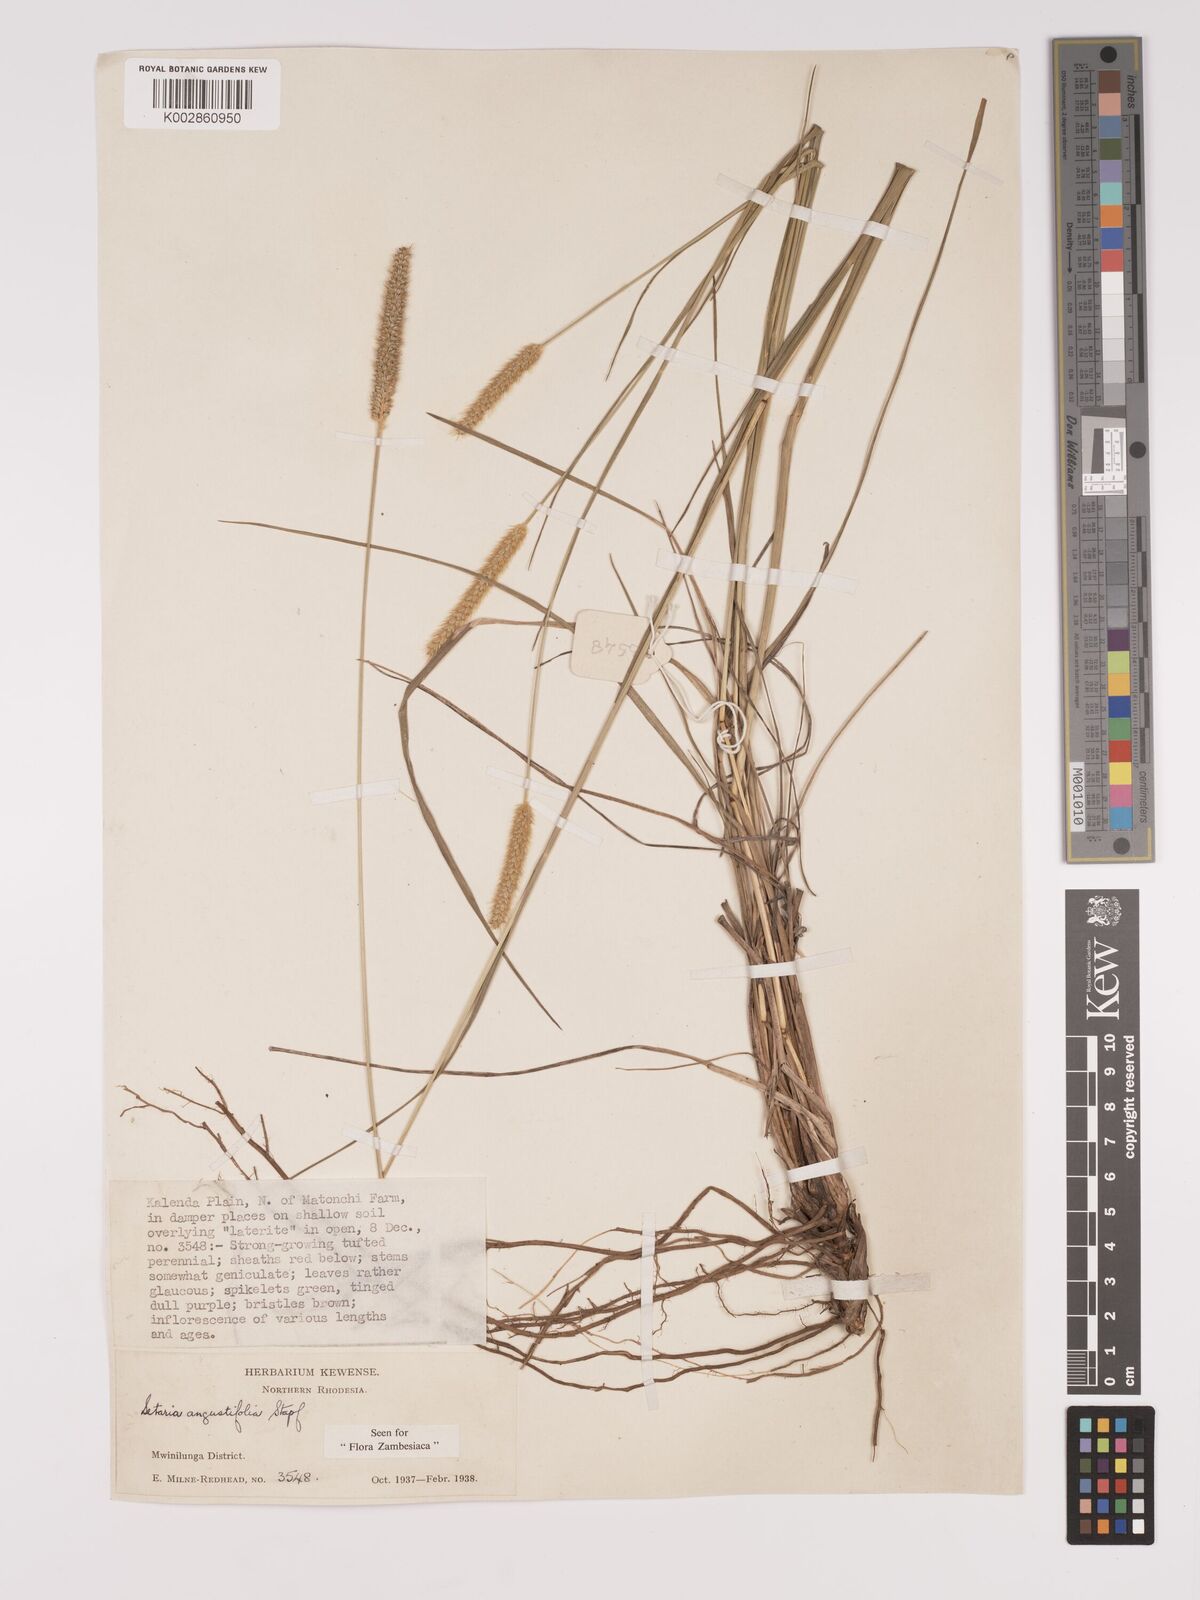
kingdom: Plantae
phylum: Tracheophyta
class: Liliopsida
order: Poales
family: Poaceae
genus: Setaria
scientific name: Setaria
